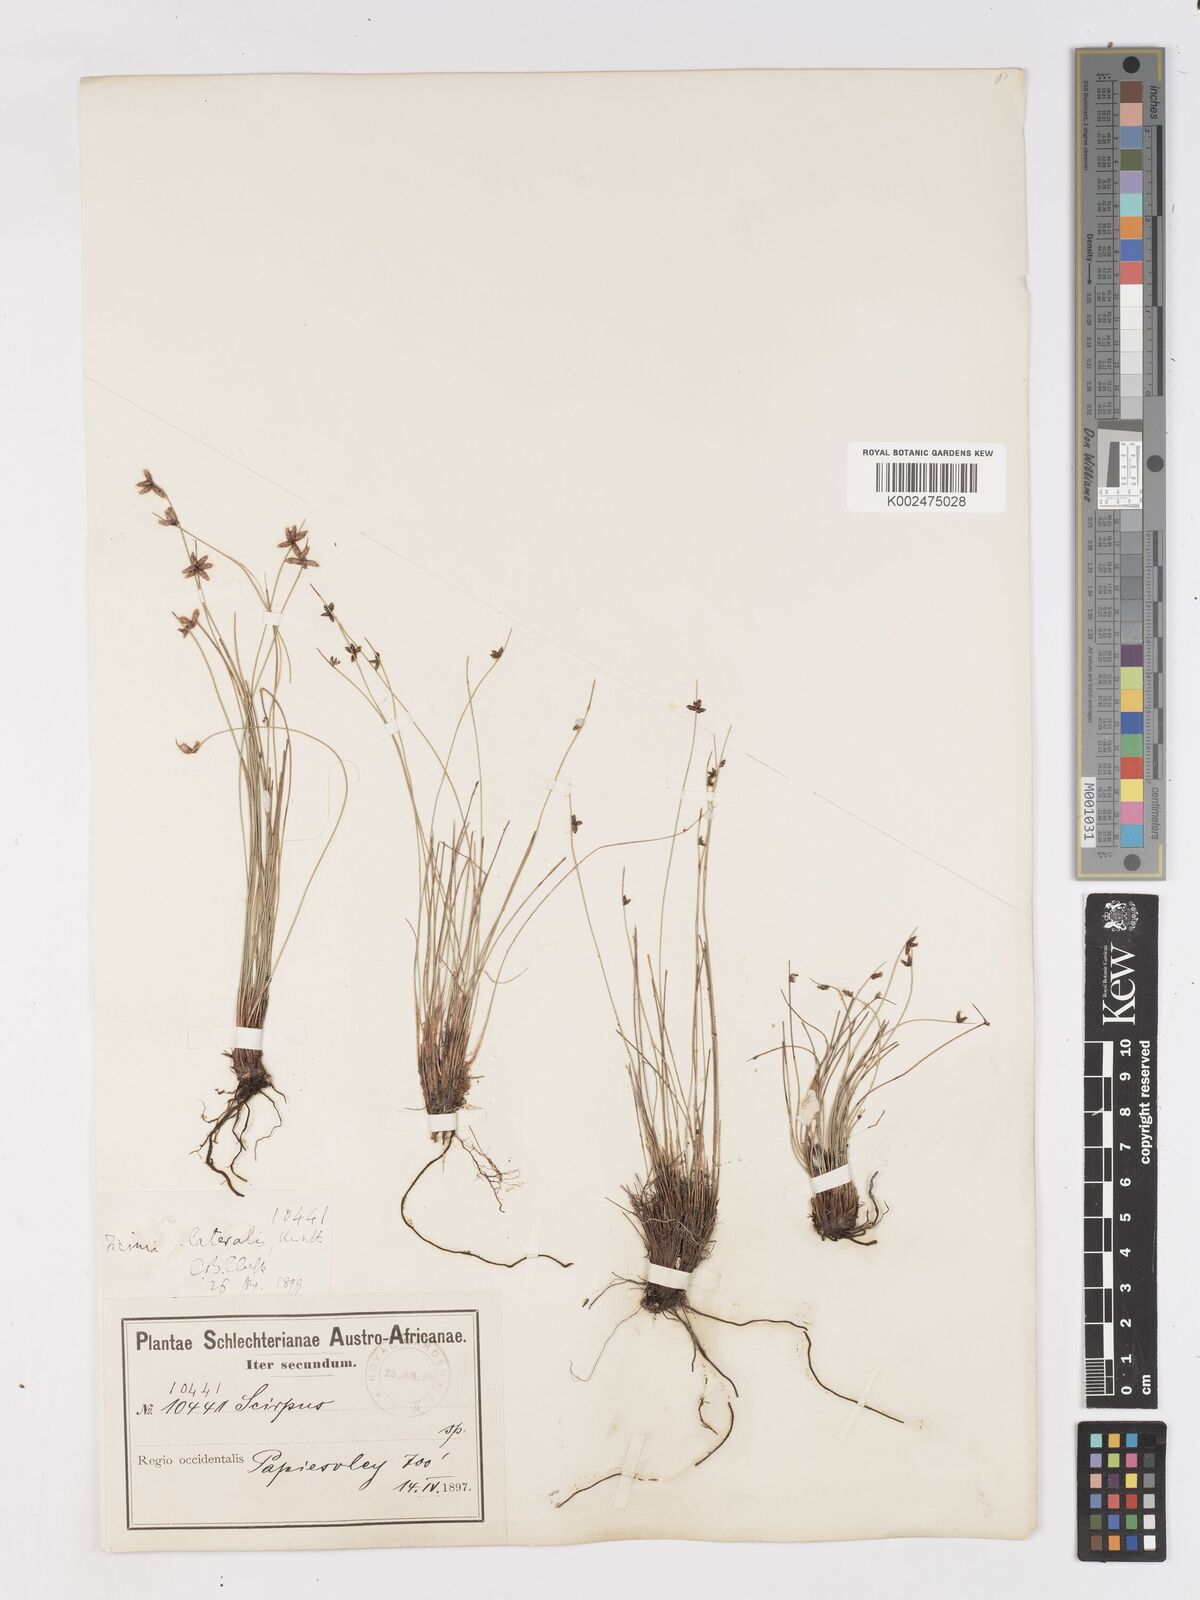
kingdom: Plantae
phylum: Tracheophyta
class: Liliopsida
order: Poales
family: Cyperaceae
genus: Ficinia
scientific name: Ficinia lateralis
